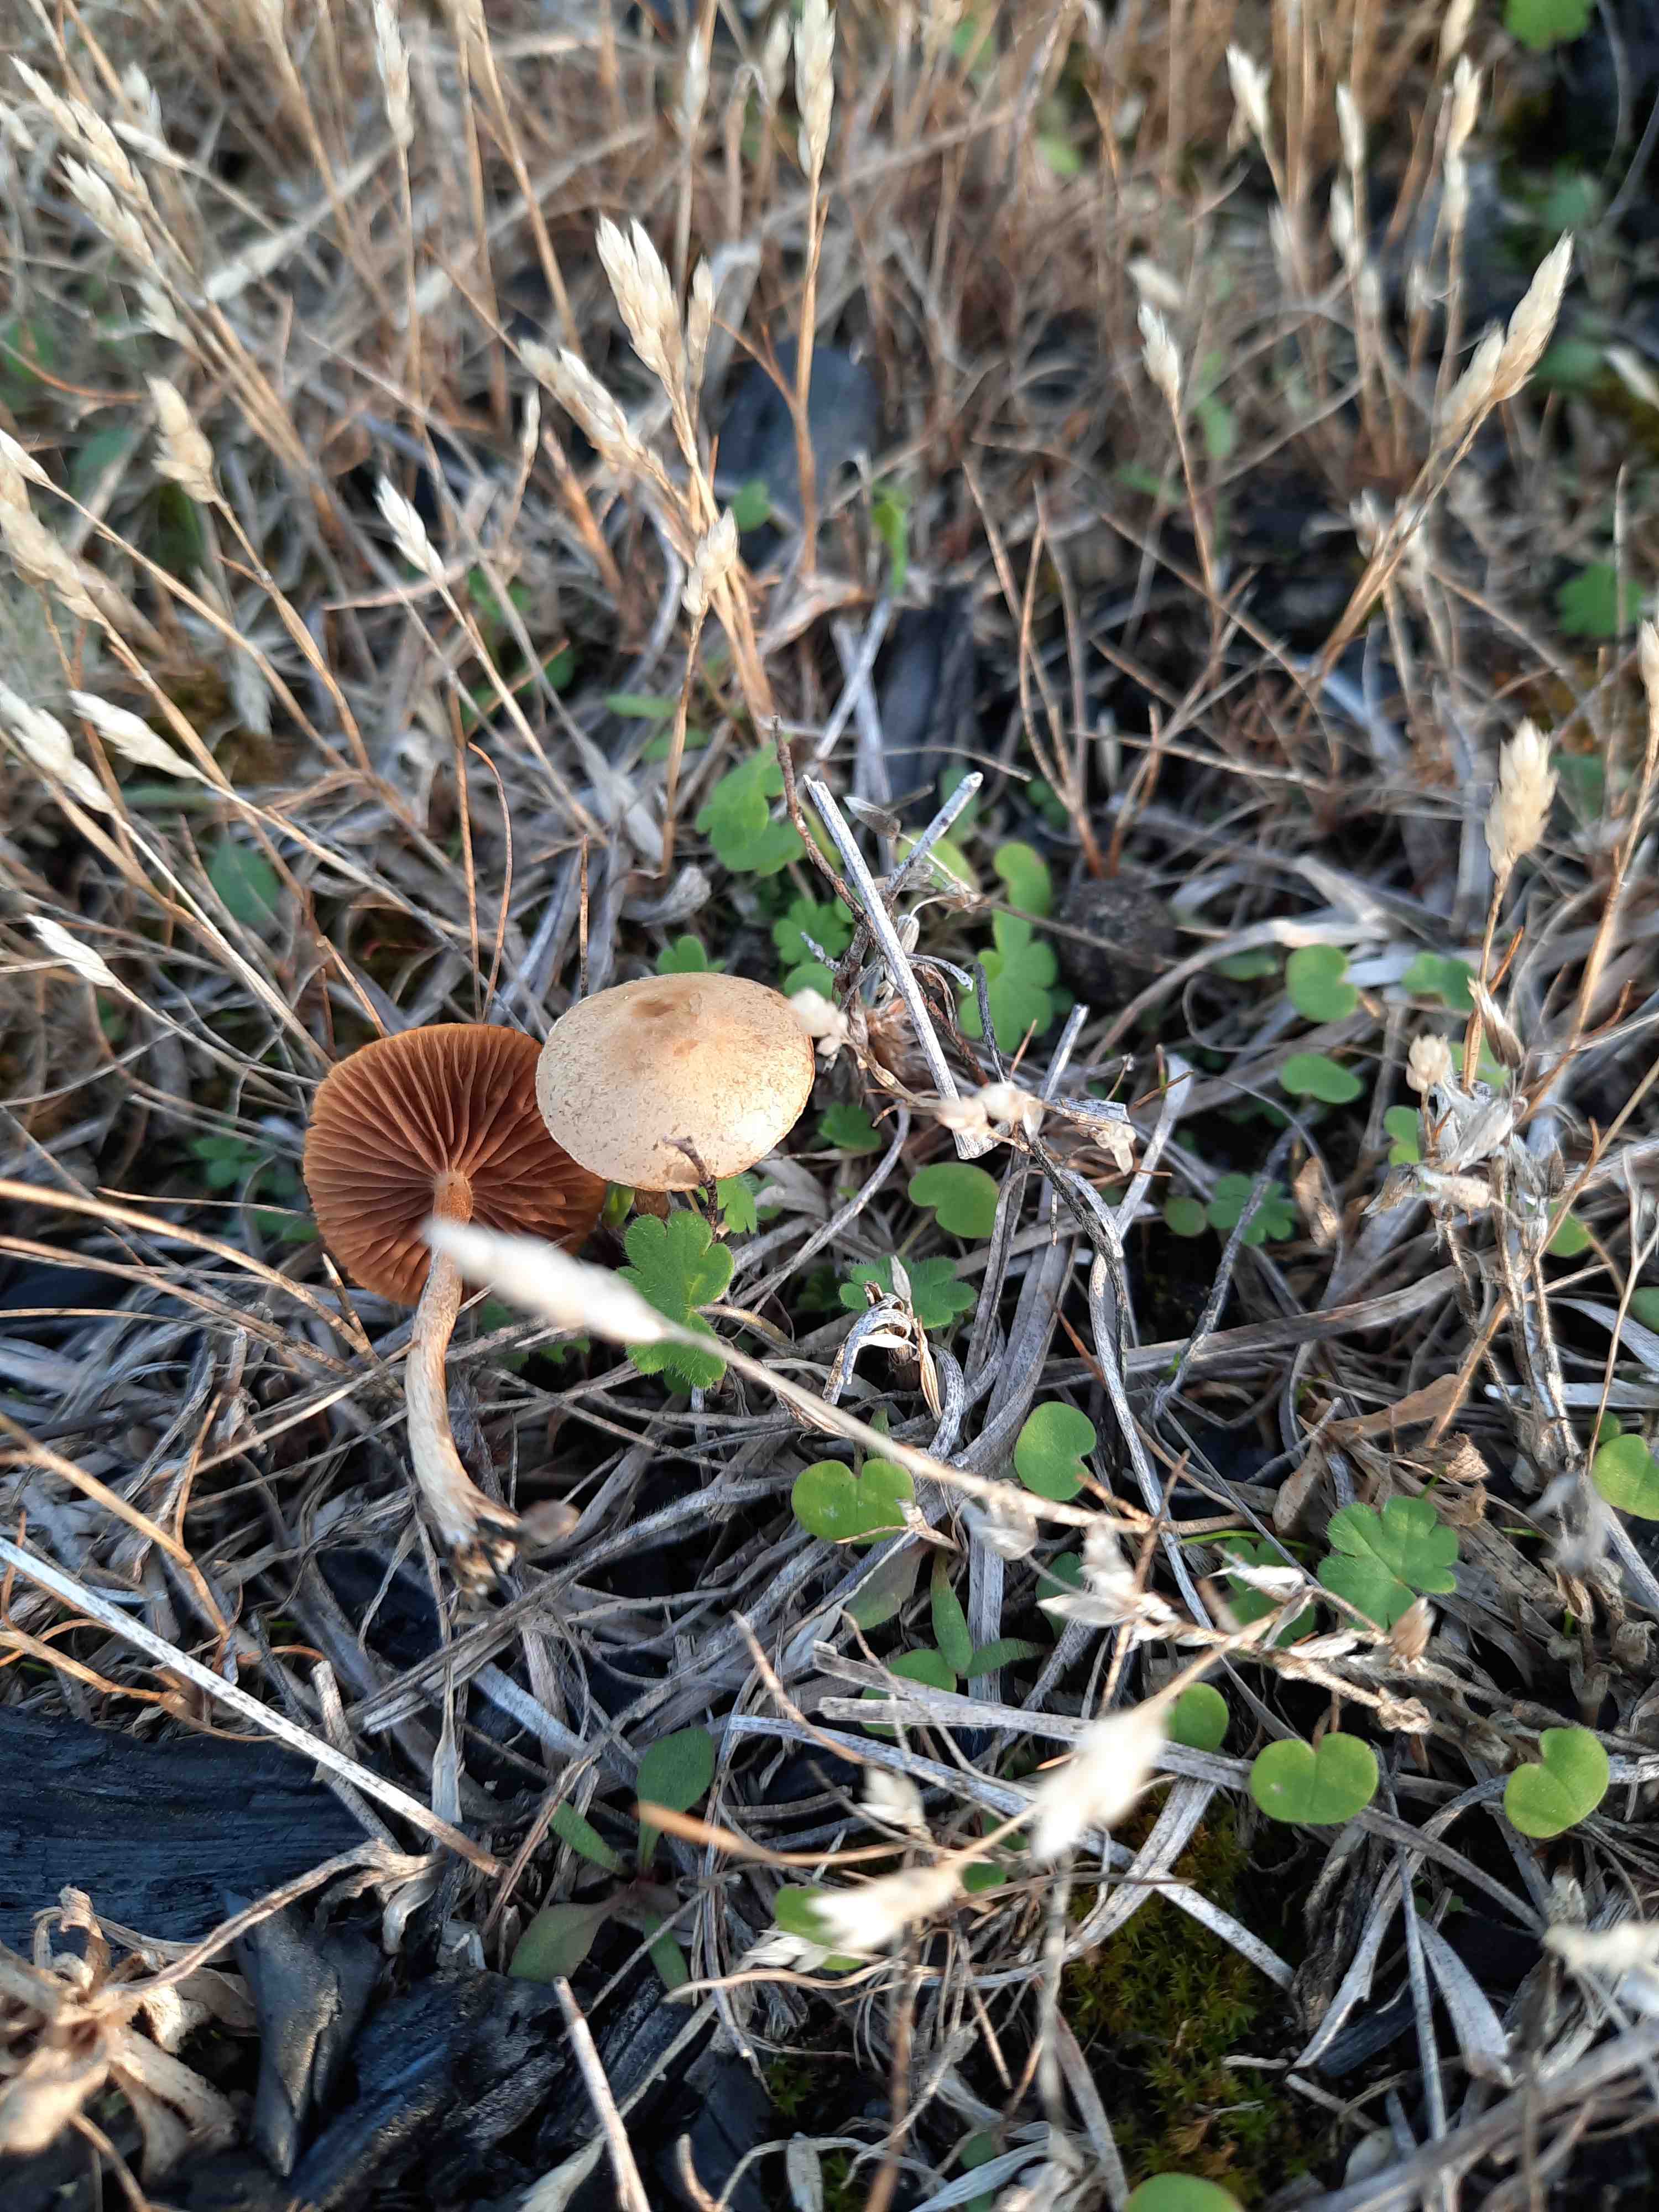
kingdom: Fungi
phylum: Basidiomycota
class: Agaricomycetes
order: Agaricales
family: Strophariaceae
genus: Agrocybe
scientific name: Agrocybe pediades
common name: almindelig agerhat
